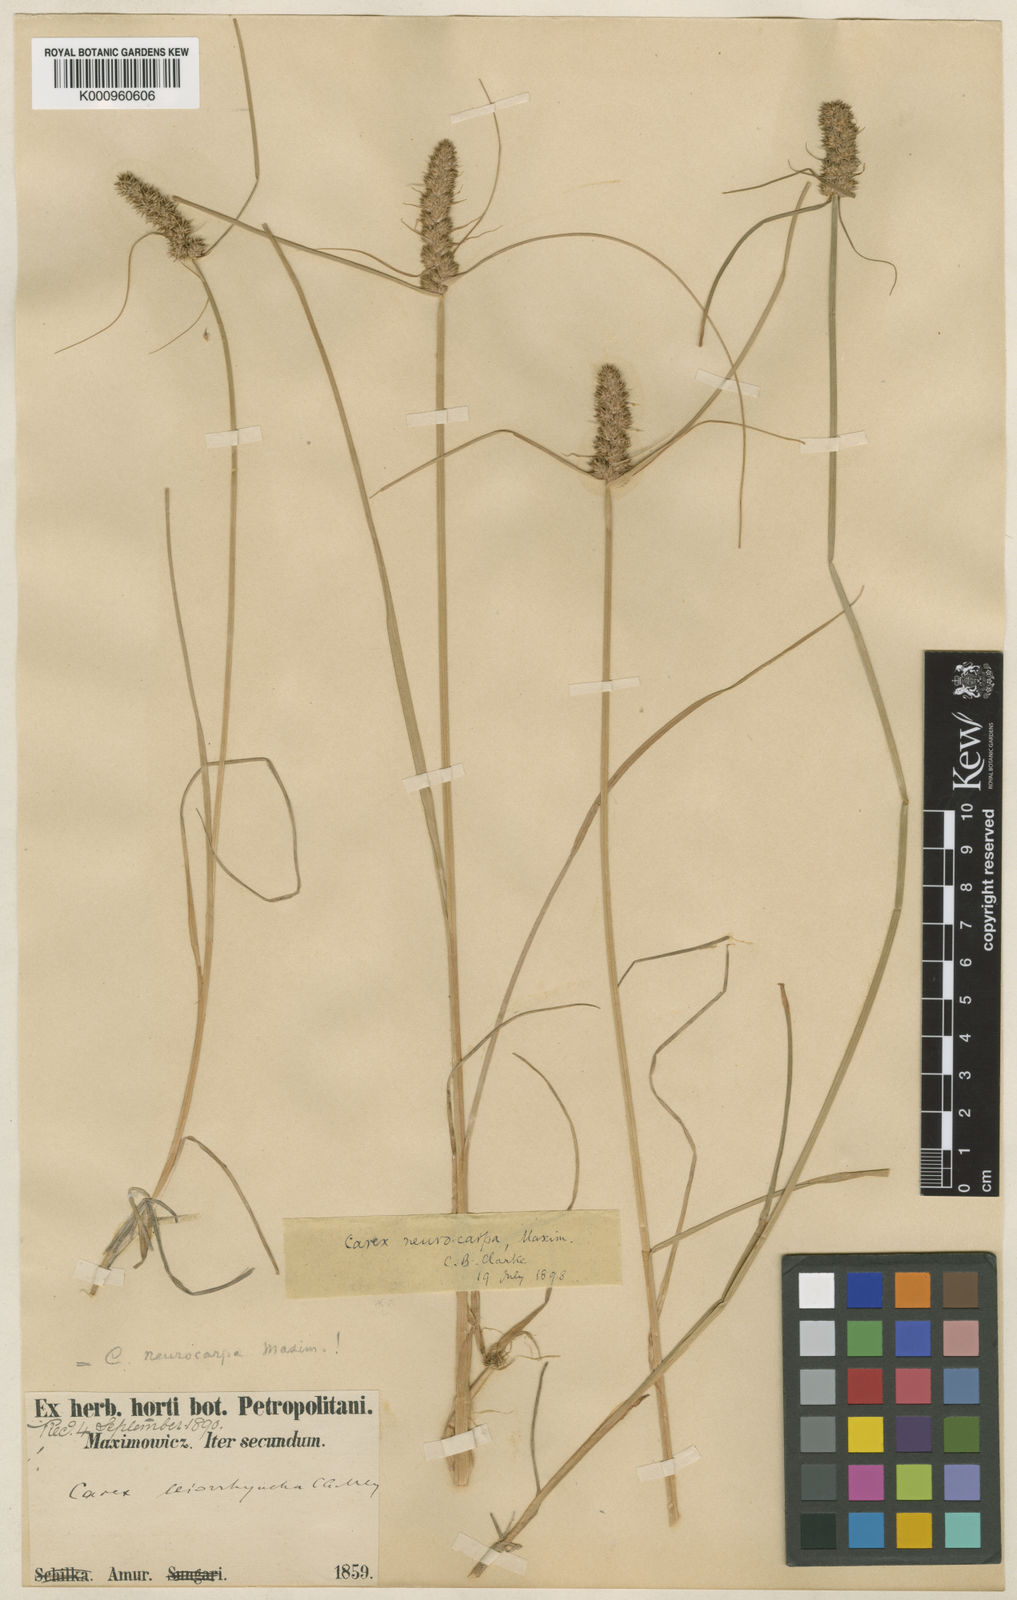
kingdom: Plantae
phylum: Tracheophyta
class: Liliopsida
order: Poales
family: Cyperaceae
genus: Carex
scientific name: Carex neurocarpa
